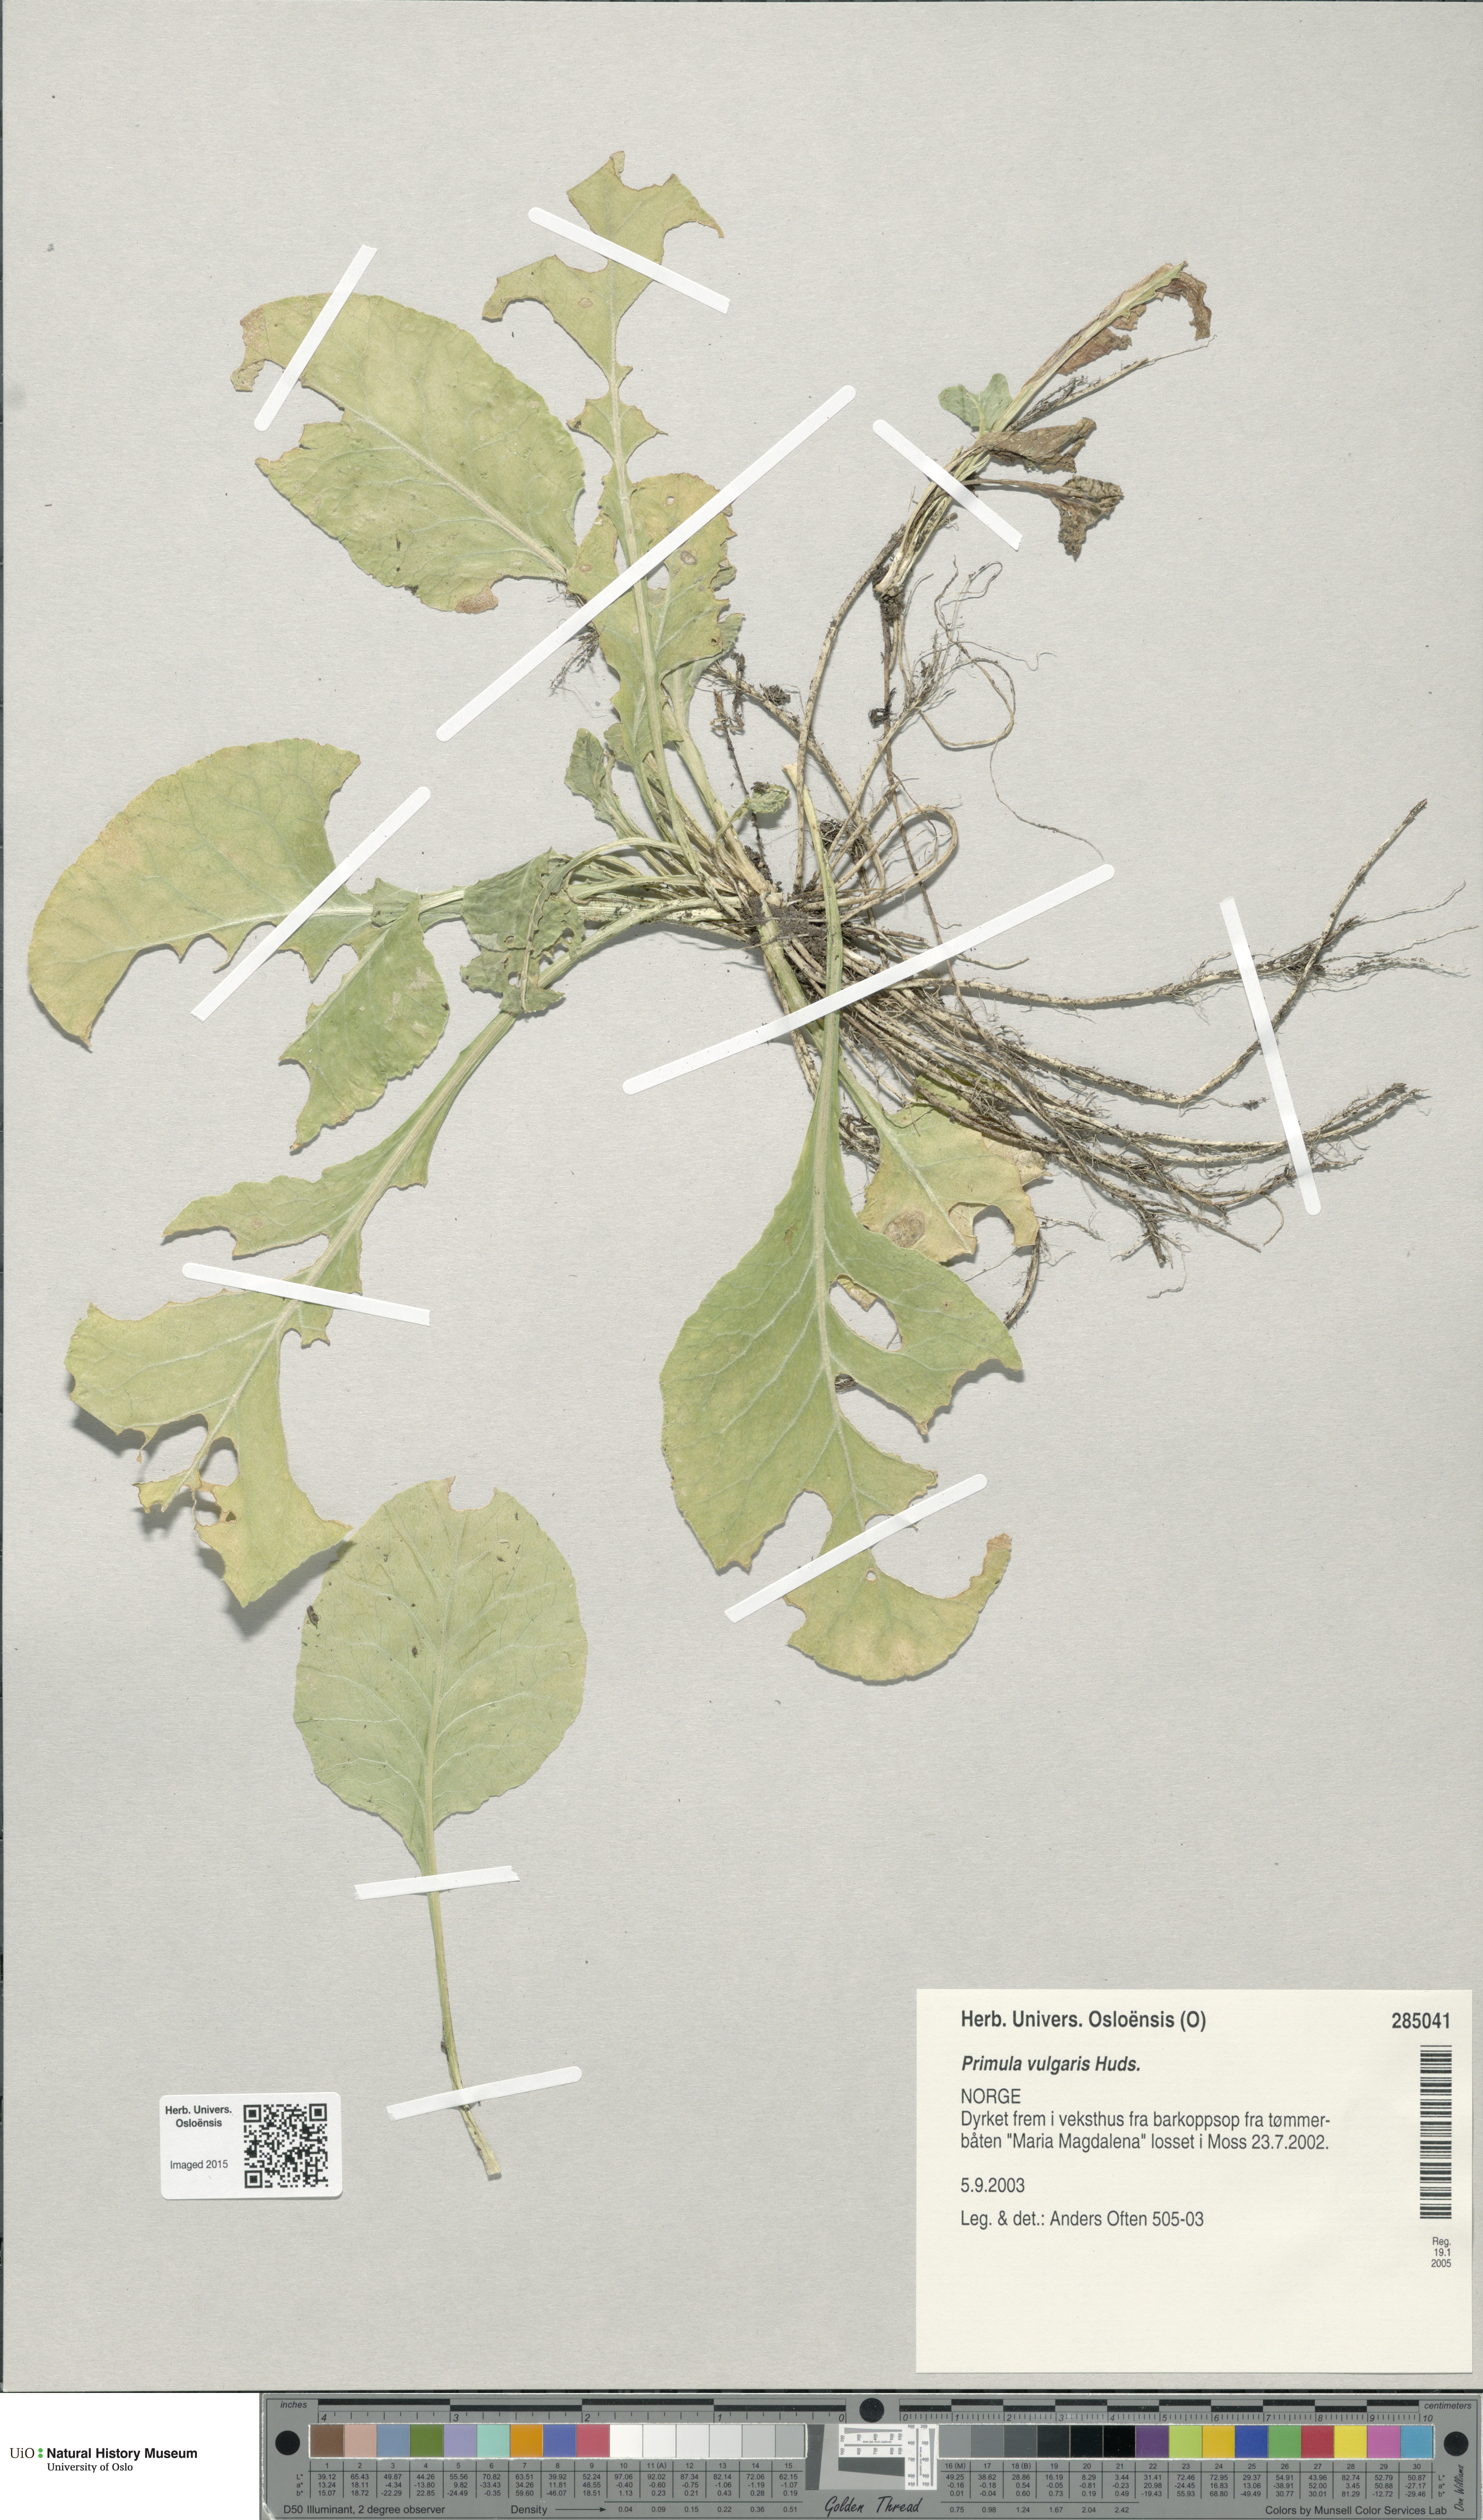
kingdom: Plantae
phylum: Tracheophyta
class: Magnoliopsida
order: Ericales
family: Primulaceae
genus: Primula
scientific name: Primula vulgaris
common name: Primrose
